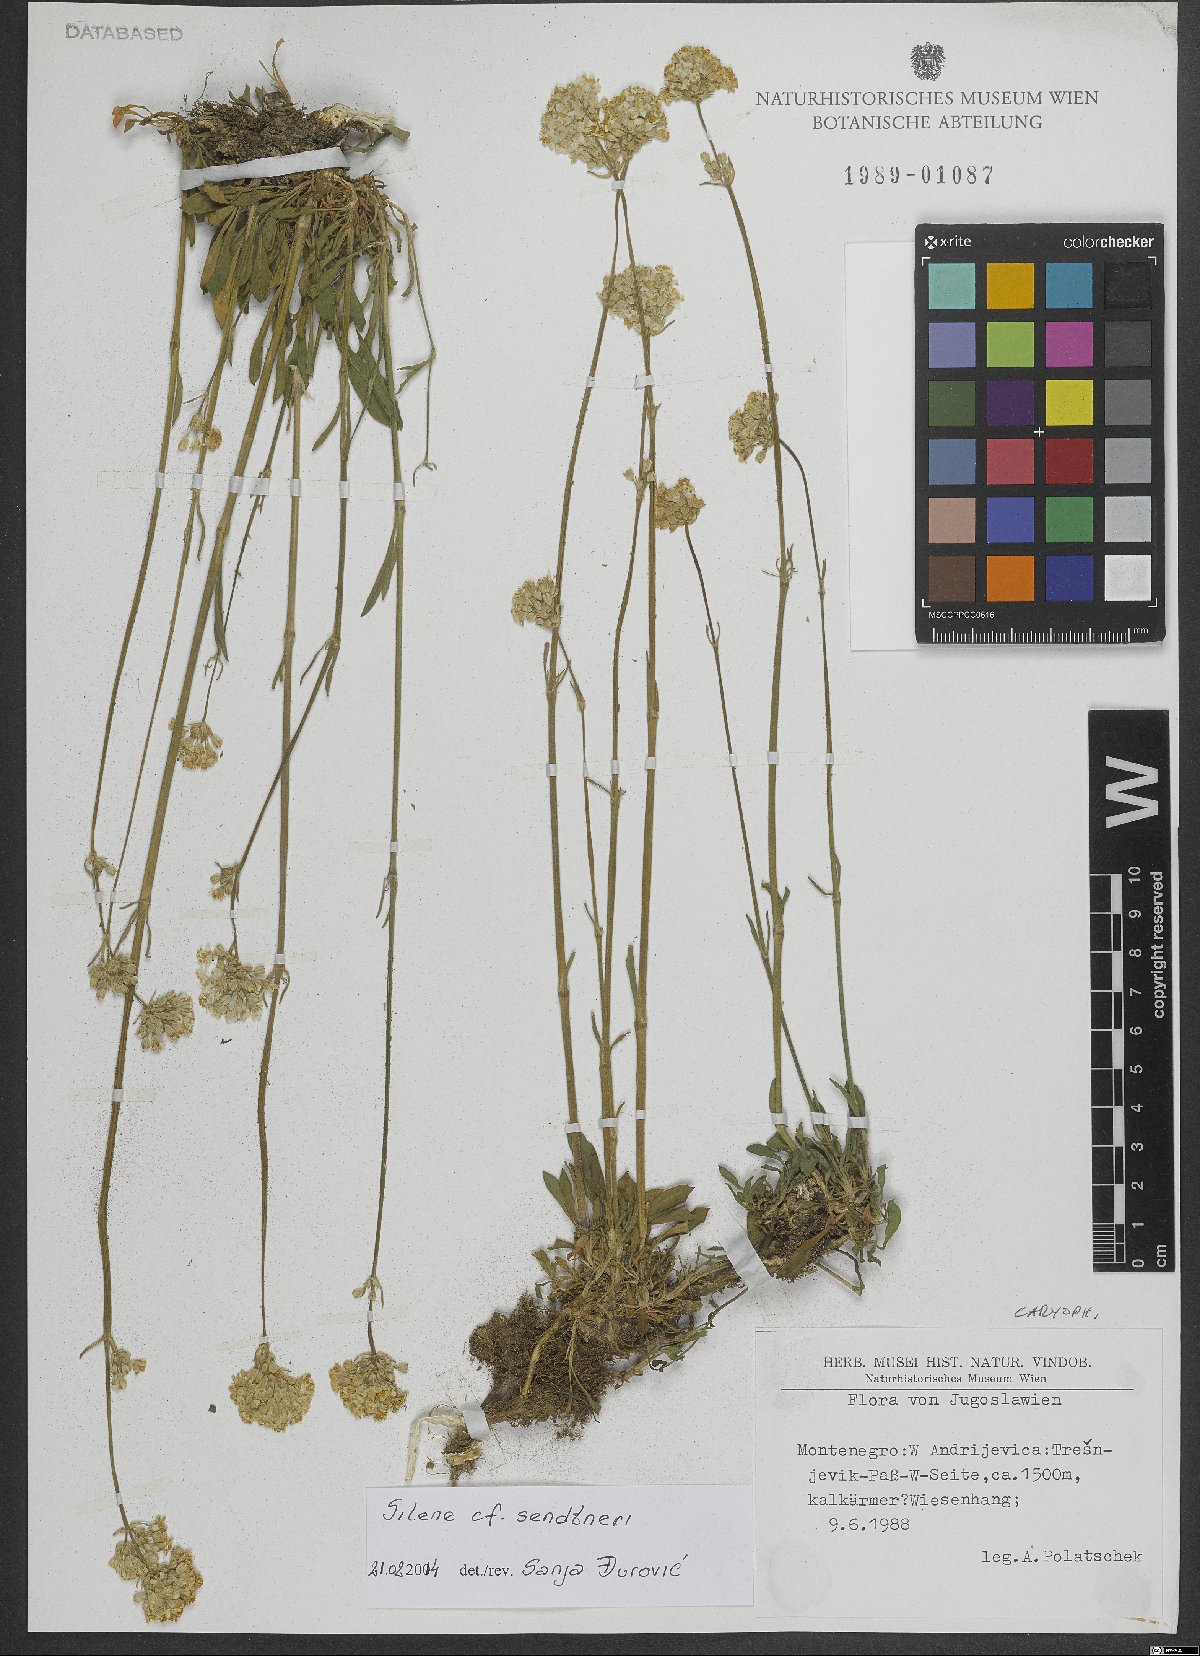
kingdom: Plantae
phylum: Tracheophyta
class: Magnoliopsida
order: Caryophyllales
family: Caryophyllaceae
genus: Silene
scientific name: Silene sendtneri
